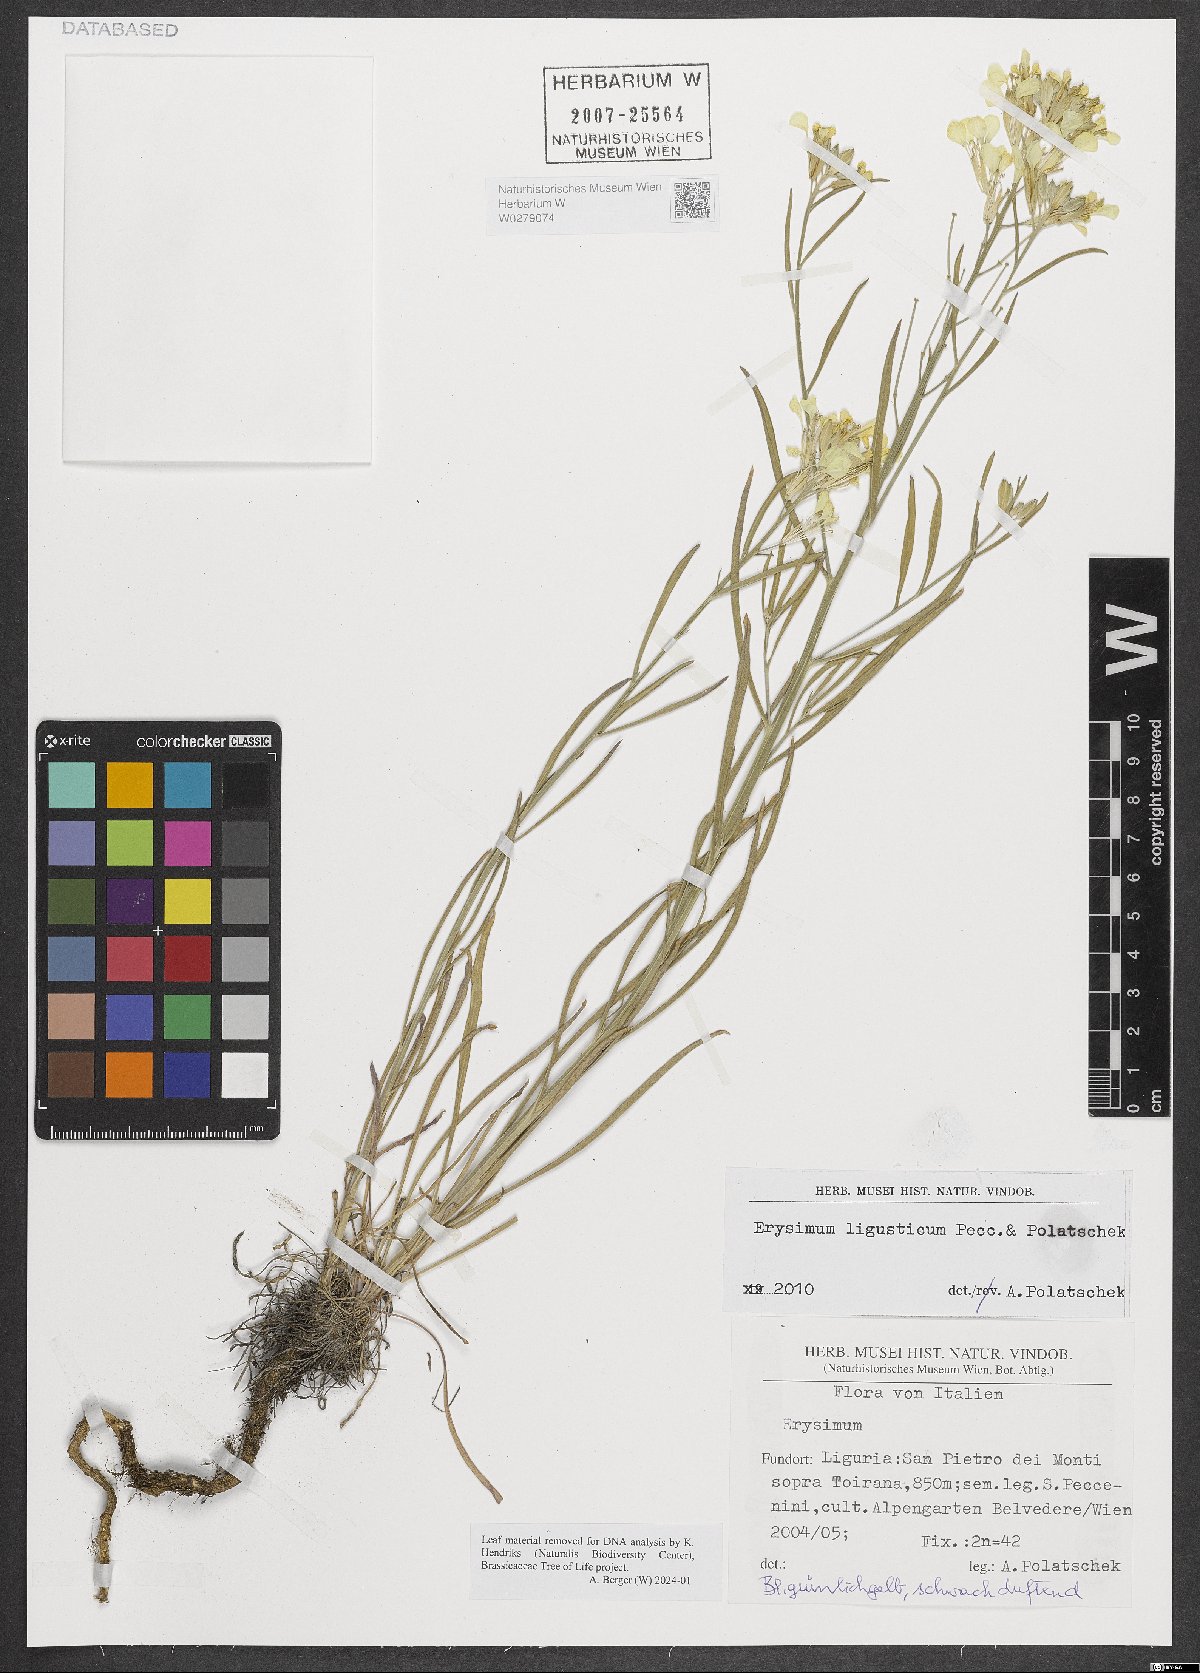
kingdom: Plantae
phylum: Tracheophyta
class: Magnoliopsida
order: Brassicales
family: Brassicaceae
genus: Erysimum
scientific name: Erysimum ligusticum
